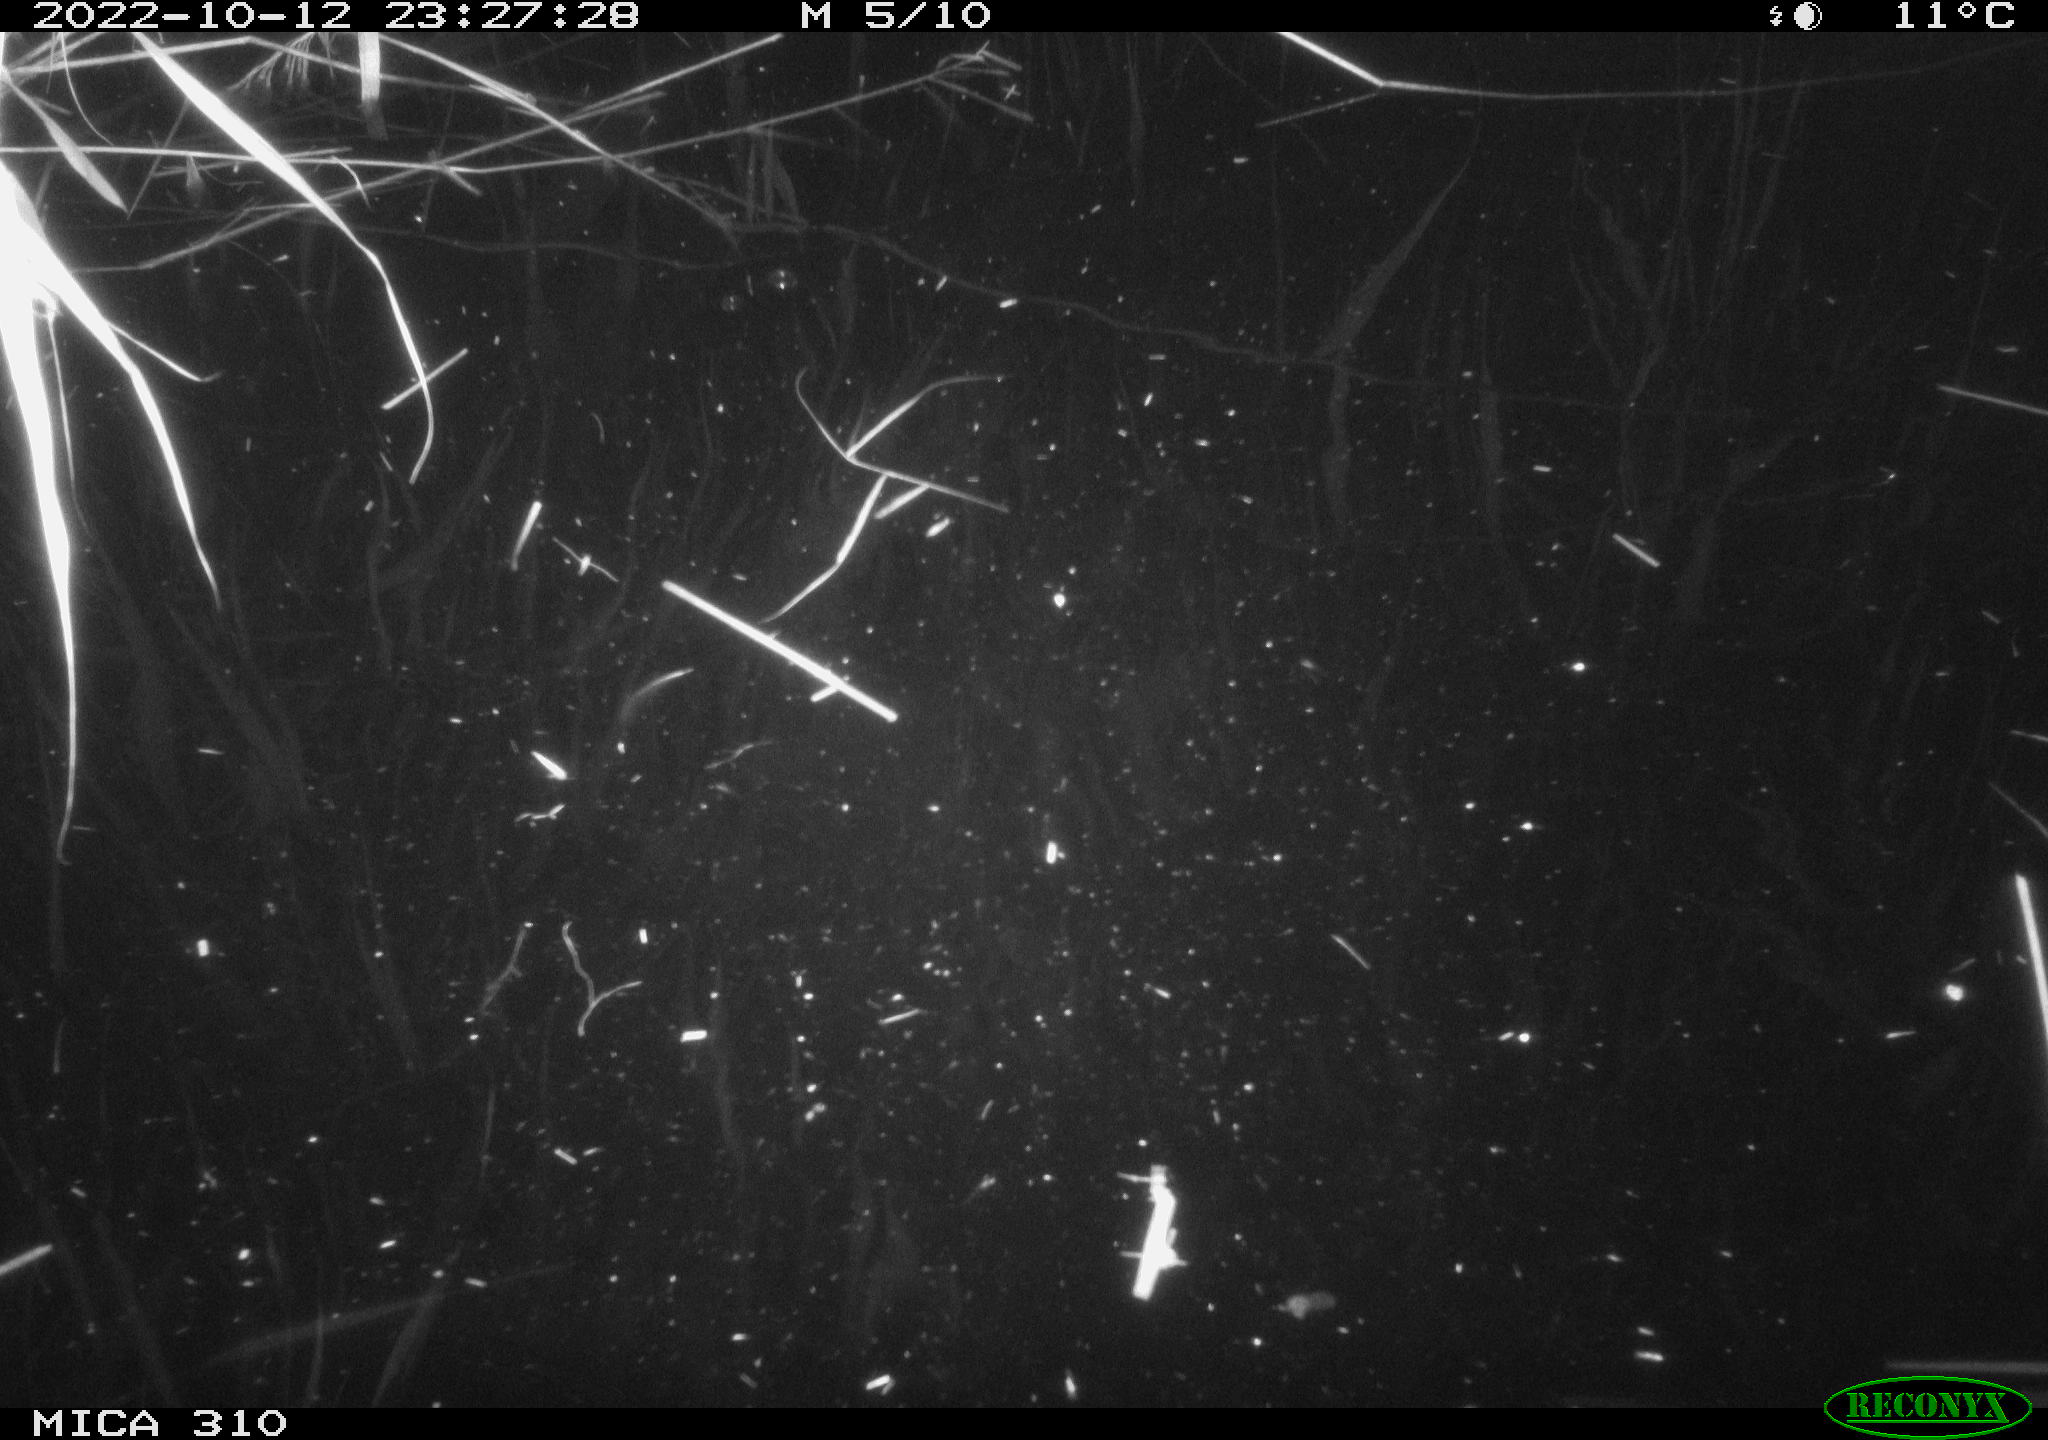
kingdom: Animalia
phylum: Chordata
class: Mammalia
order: Rodentia
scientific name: Rodentia
